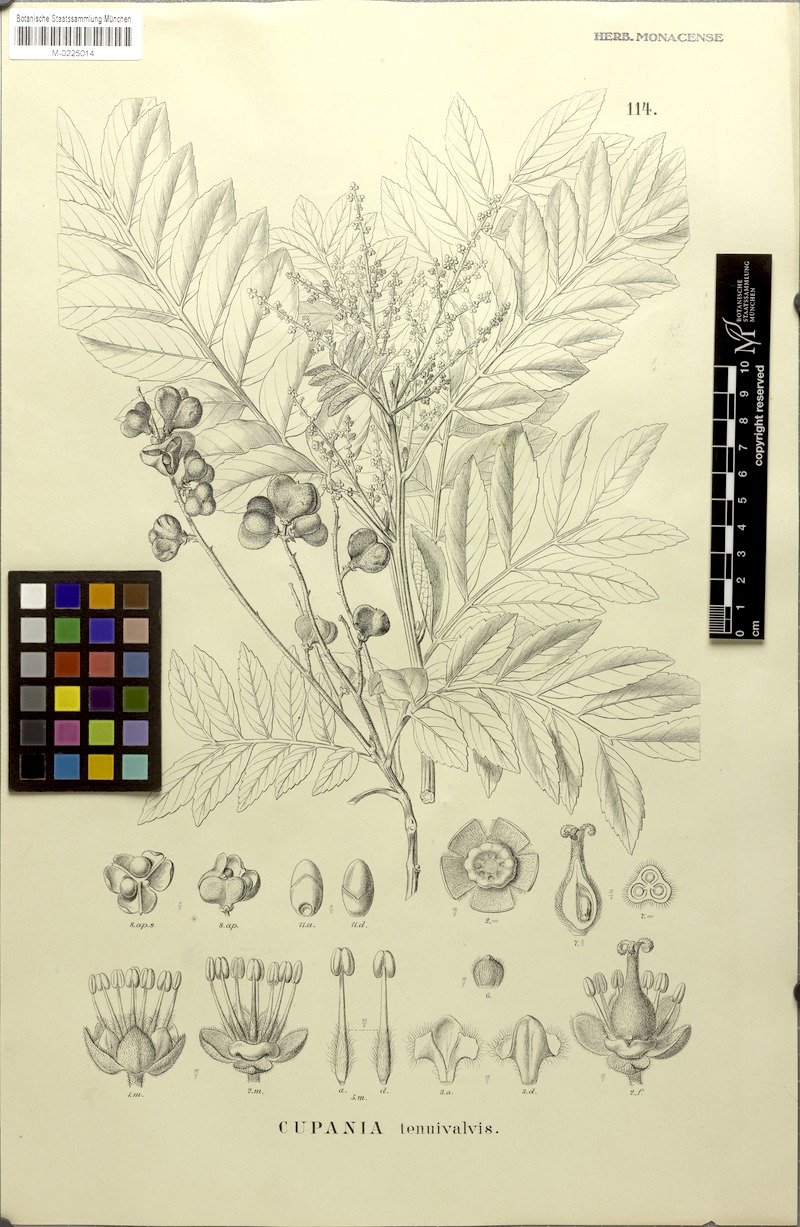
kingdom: Plantae
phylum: Tracheophyta
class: Magnoliopsida
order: Sapindales
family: Sapindaceae
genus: Cupania
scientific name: Cupania tenuivalvis
